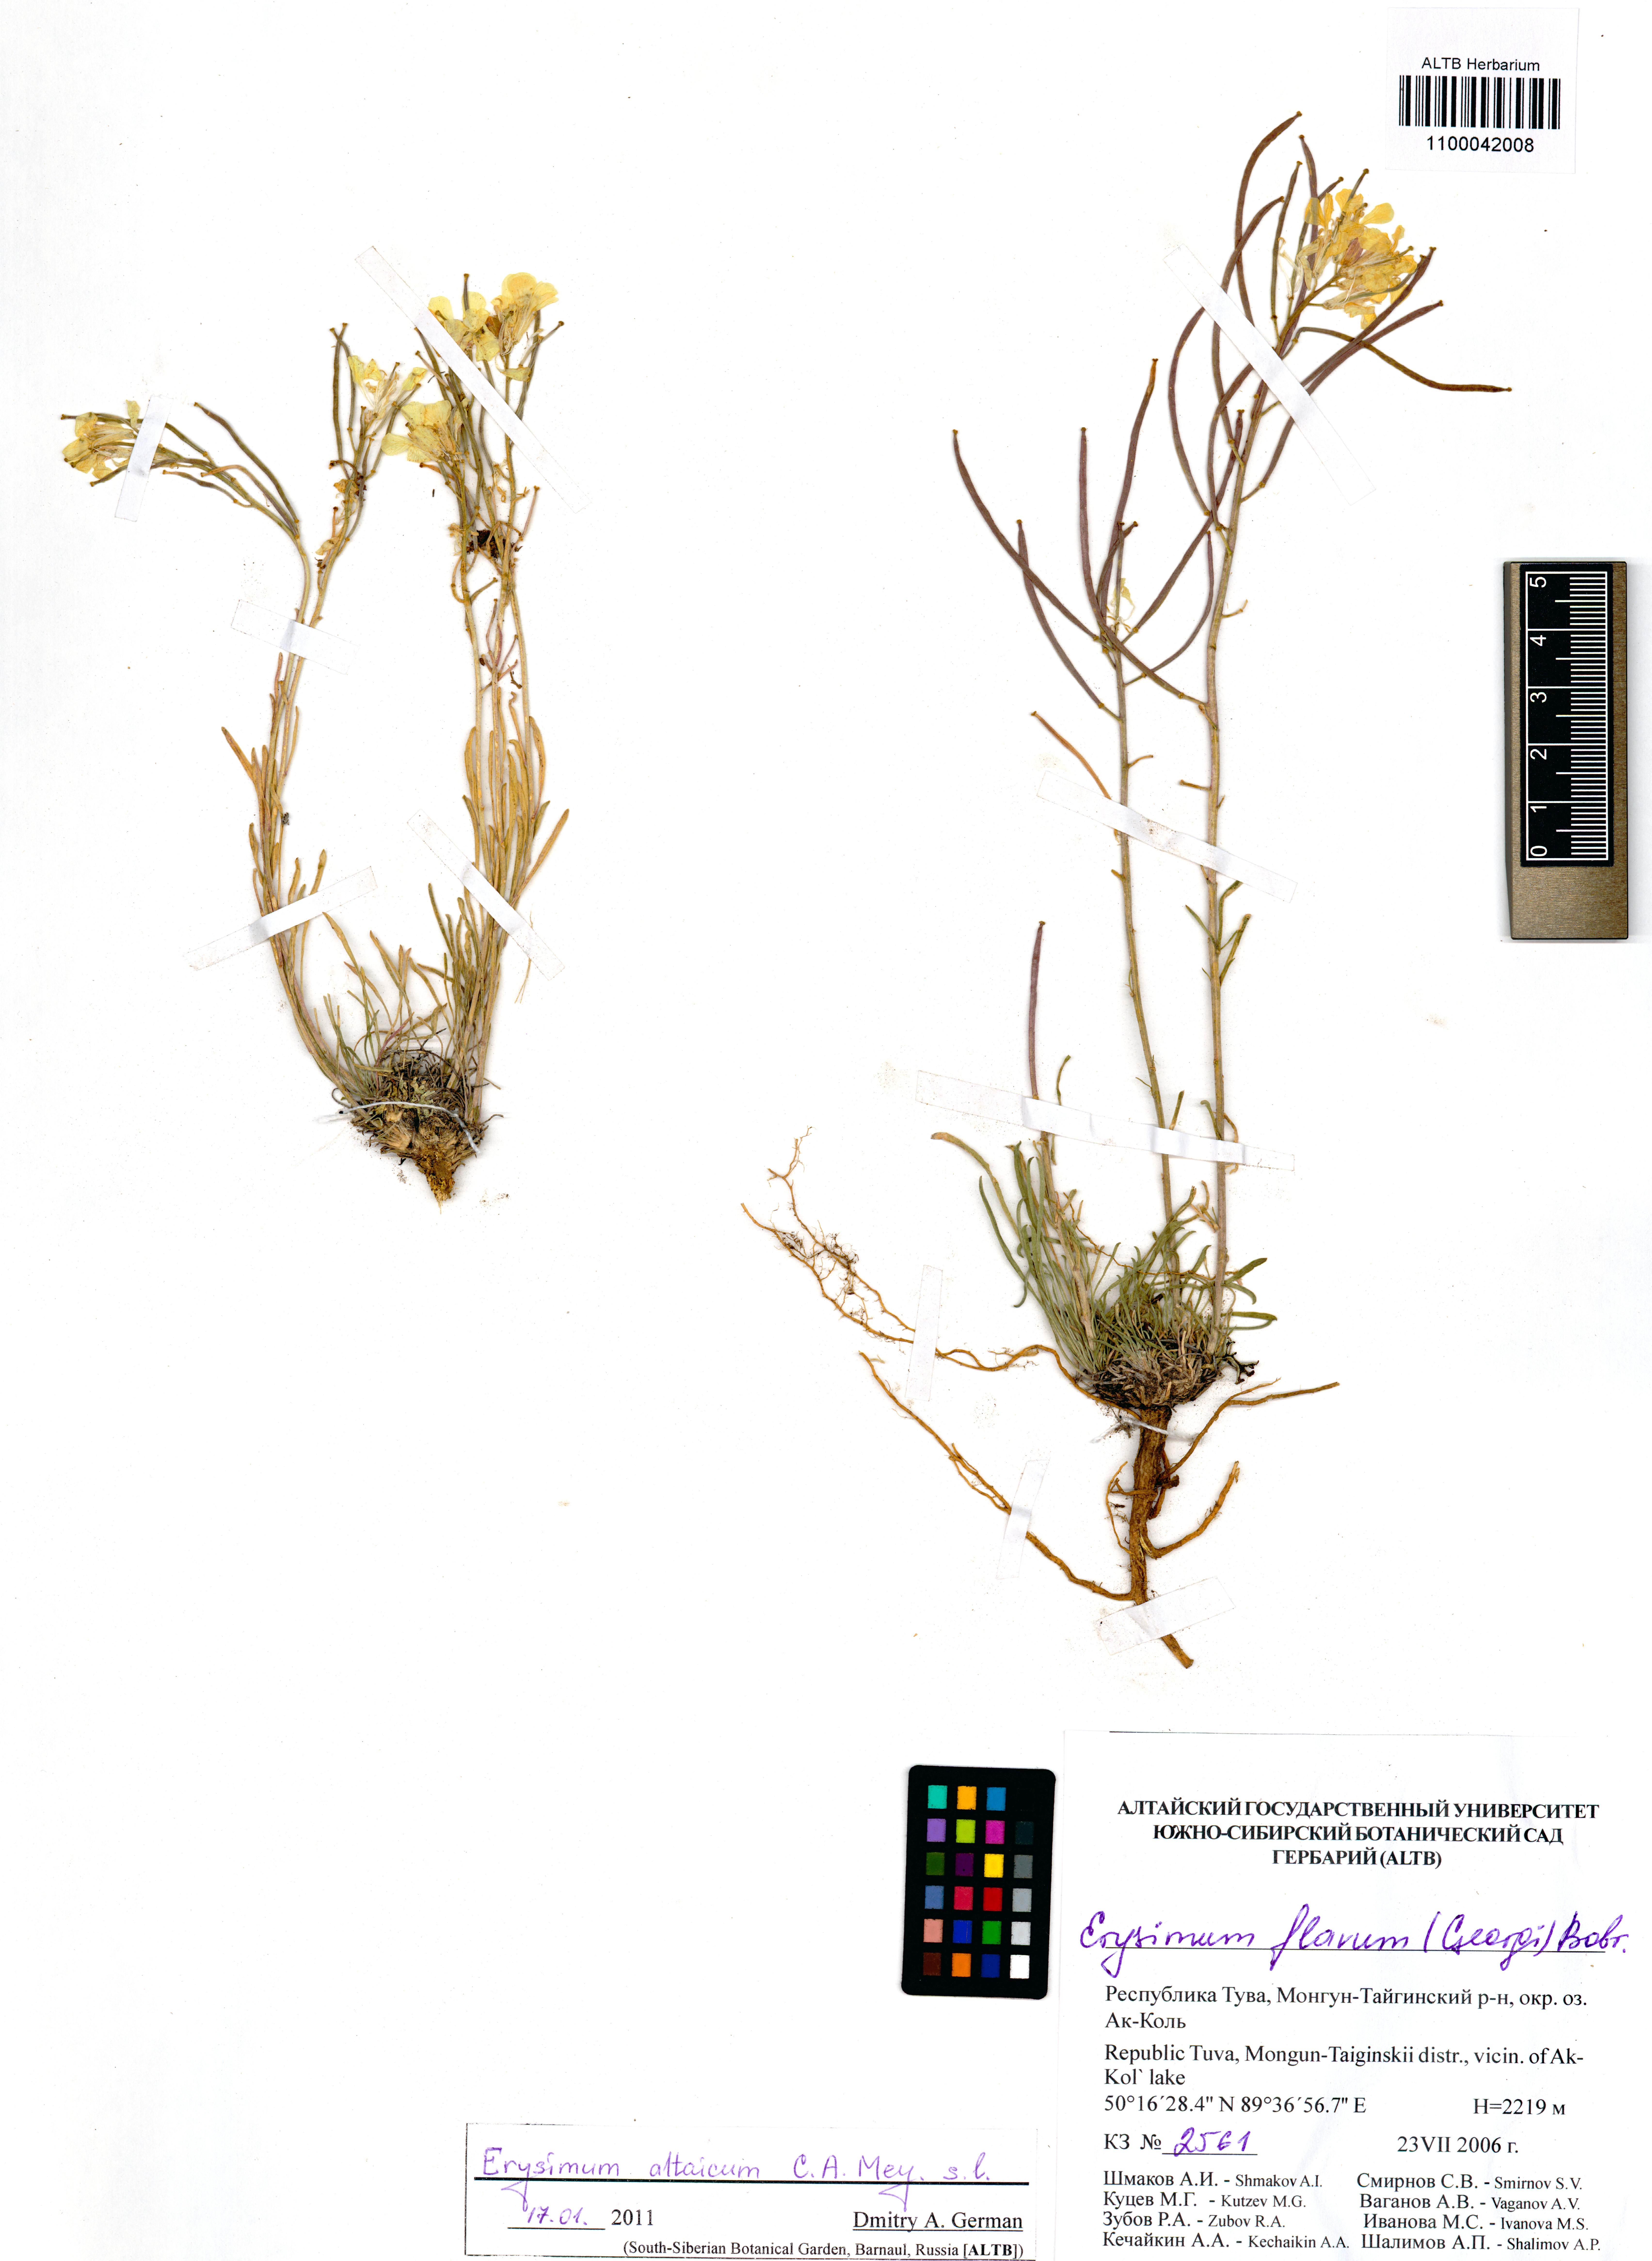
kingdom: Plantae
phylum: Tracheophyta
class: Magnoliopsida
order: Brassicales
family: Brassicaceae
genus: Erysimum
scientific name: Erysimum altaicum
